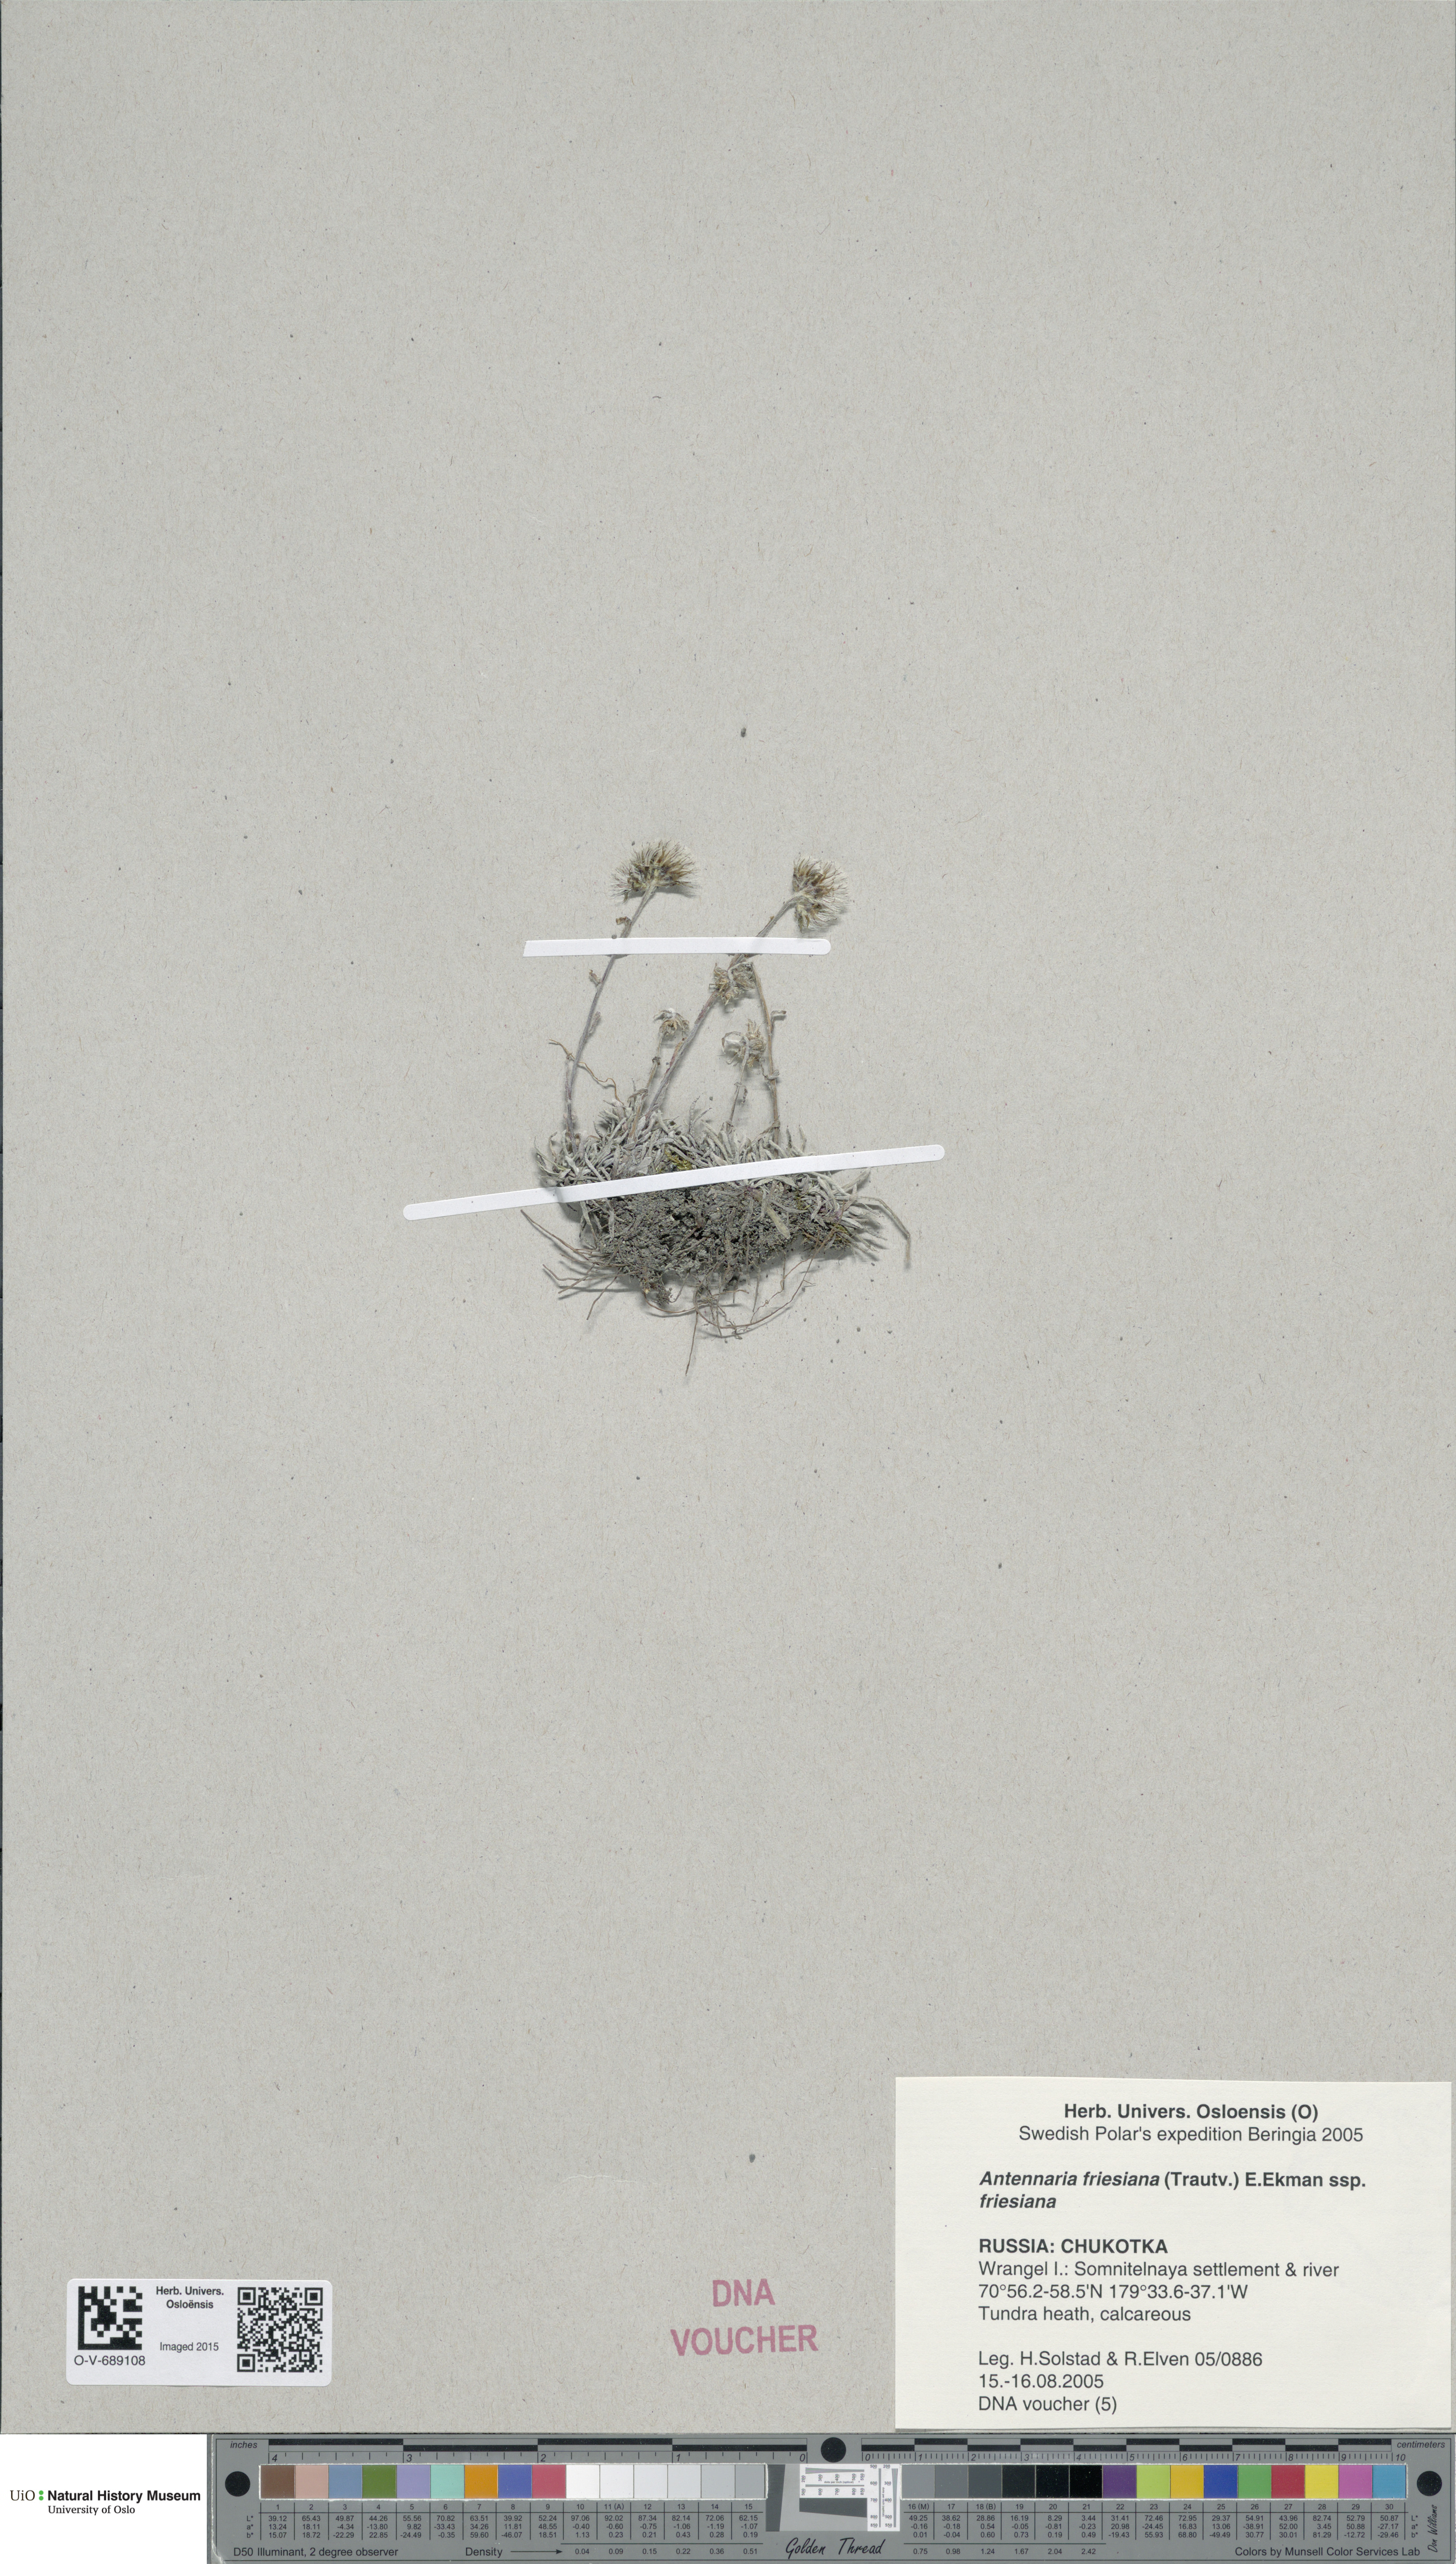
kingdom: Plantae
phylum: Tracheophyta
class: Magnoliopsida
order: Asterales
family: Asteraceae
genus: Antennaria
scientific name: Antennaria friesiana
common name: Fries' pussytoes
